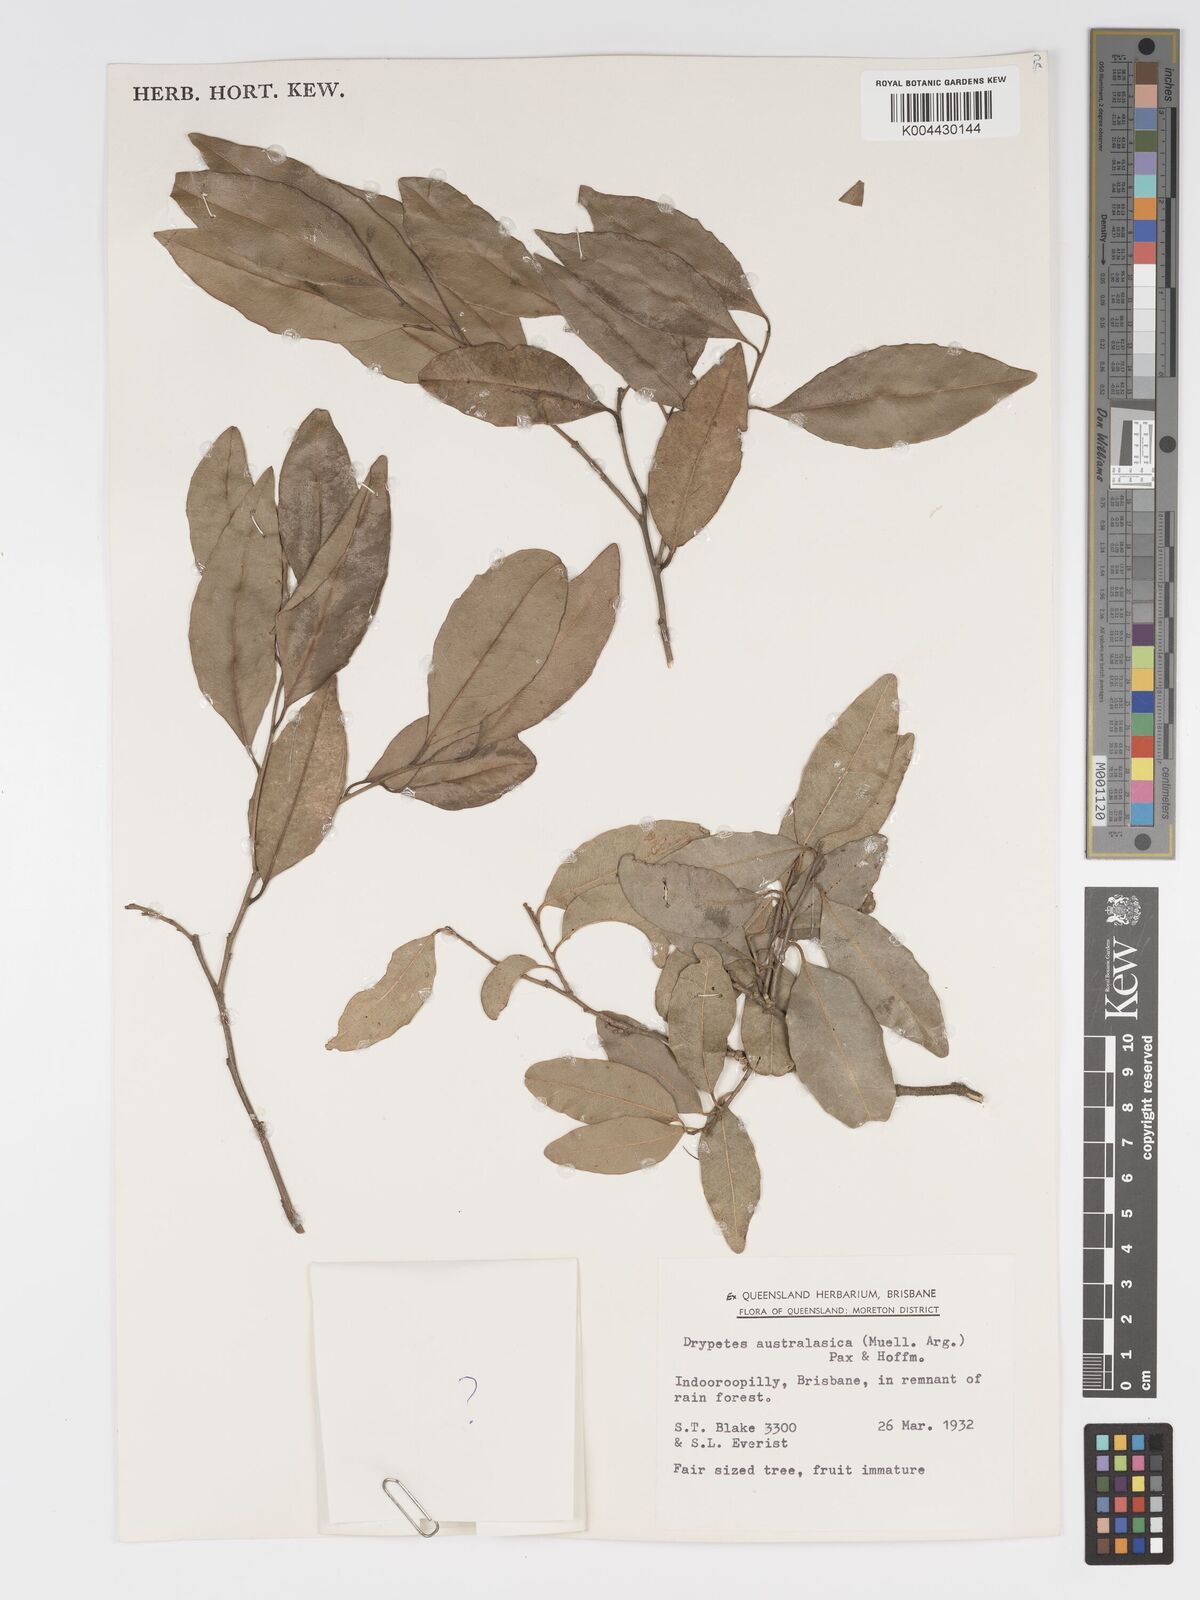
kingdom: Plantae
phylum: Tracheophyta
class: Magnoliopsida
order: Malpighiales
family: Putranjivaceae
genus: Drypetes
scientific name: Drypetes deplanchei
